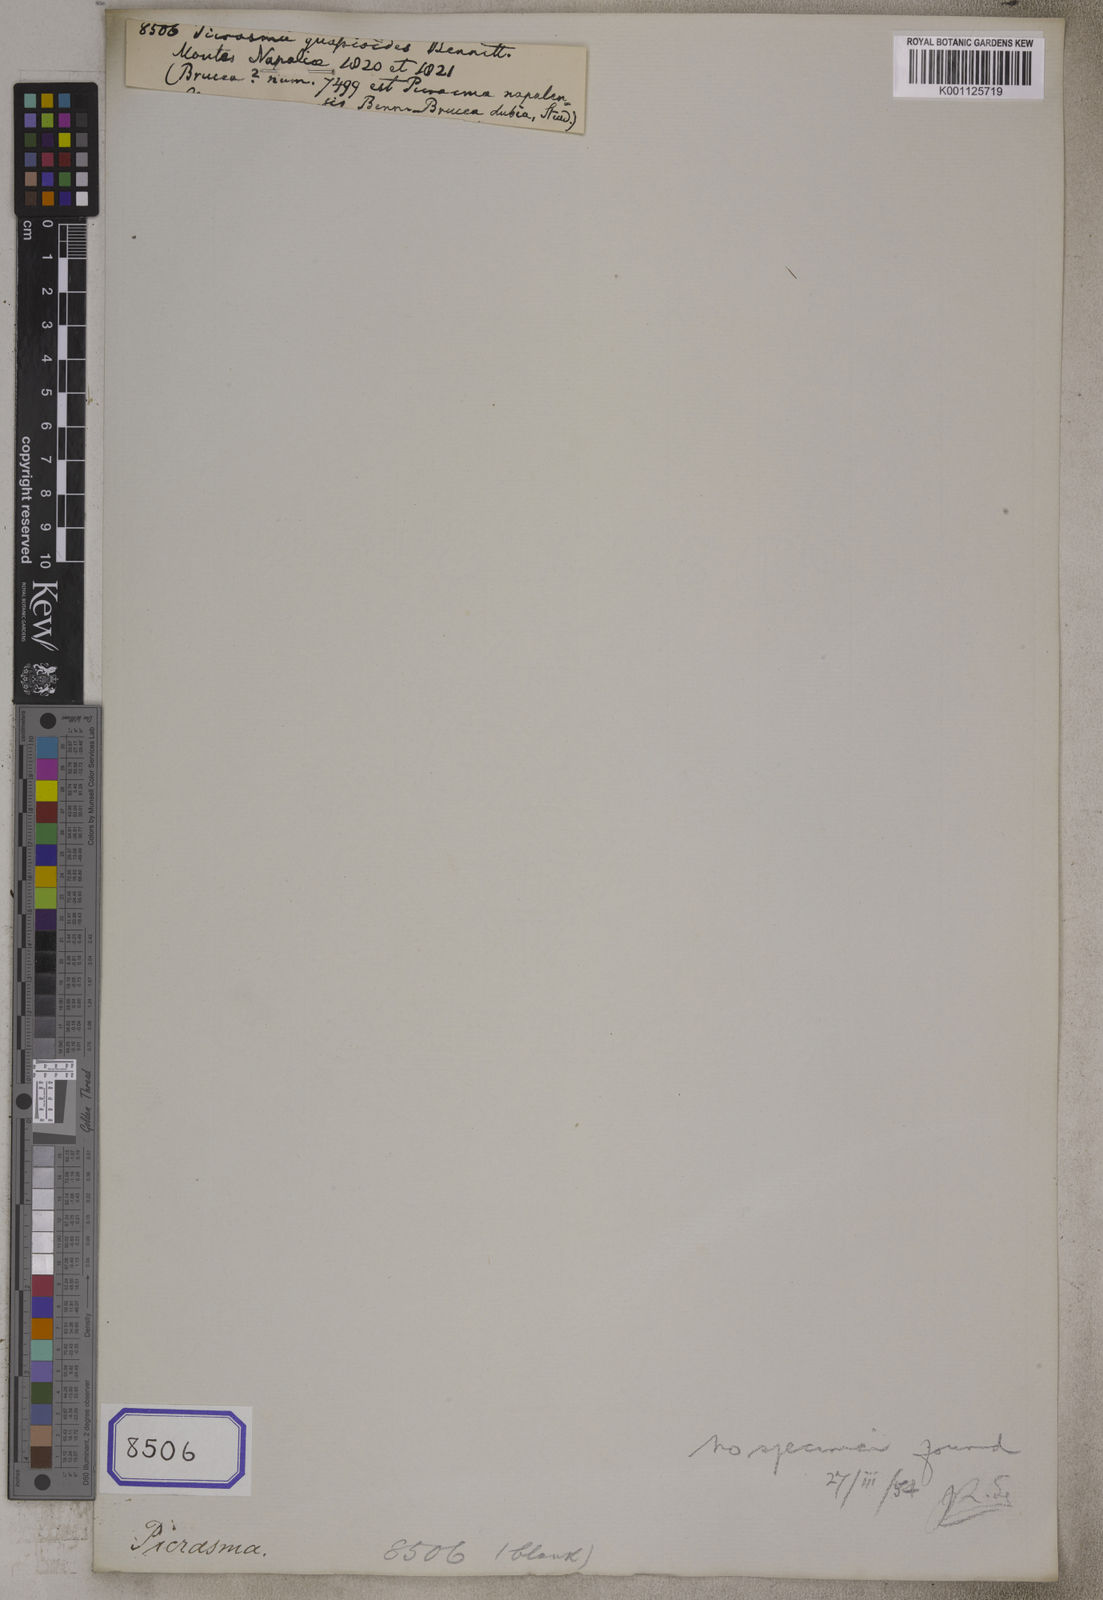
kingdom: Plantae
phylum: Tracheophyta
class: Magnoliopsida
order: Sapindales
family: Simaroubaceae
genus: Picrasma
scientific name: Picrasma quassioides
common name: Shurni
